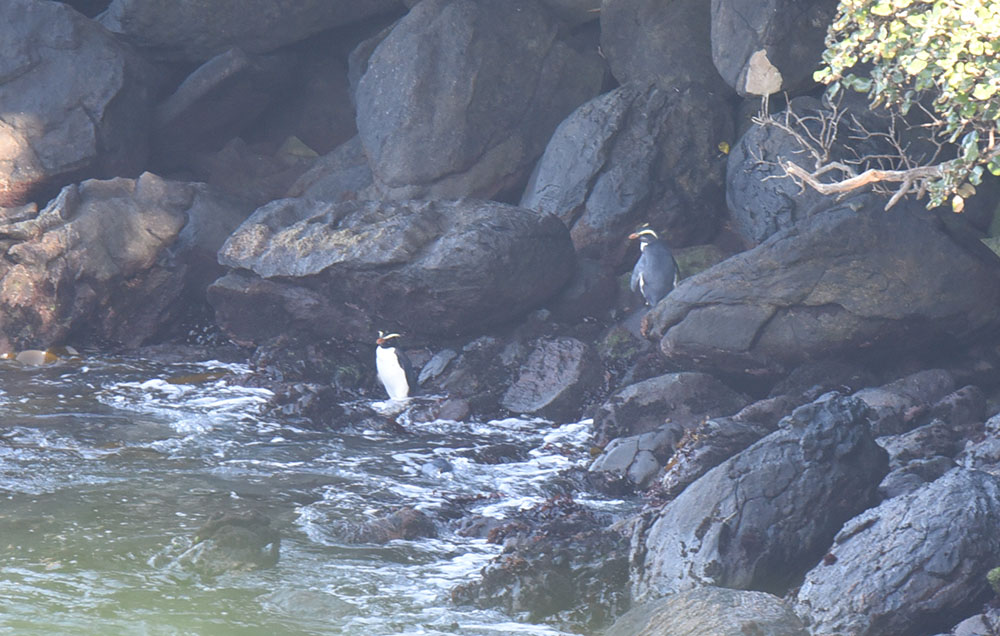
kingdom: Animalia
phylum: Chordata
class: Aves
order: Sphenisciformes
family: Spheniscidae
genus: Eudyptes
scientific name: Eudyptes pachyrhynchus
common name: Fiordland penguin
